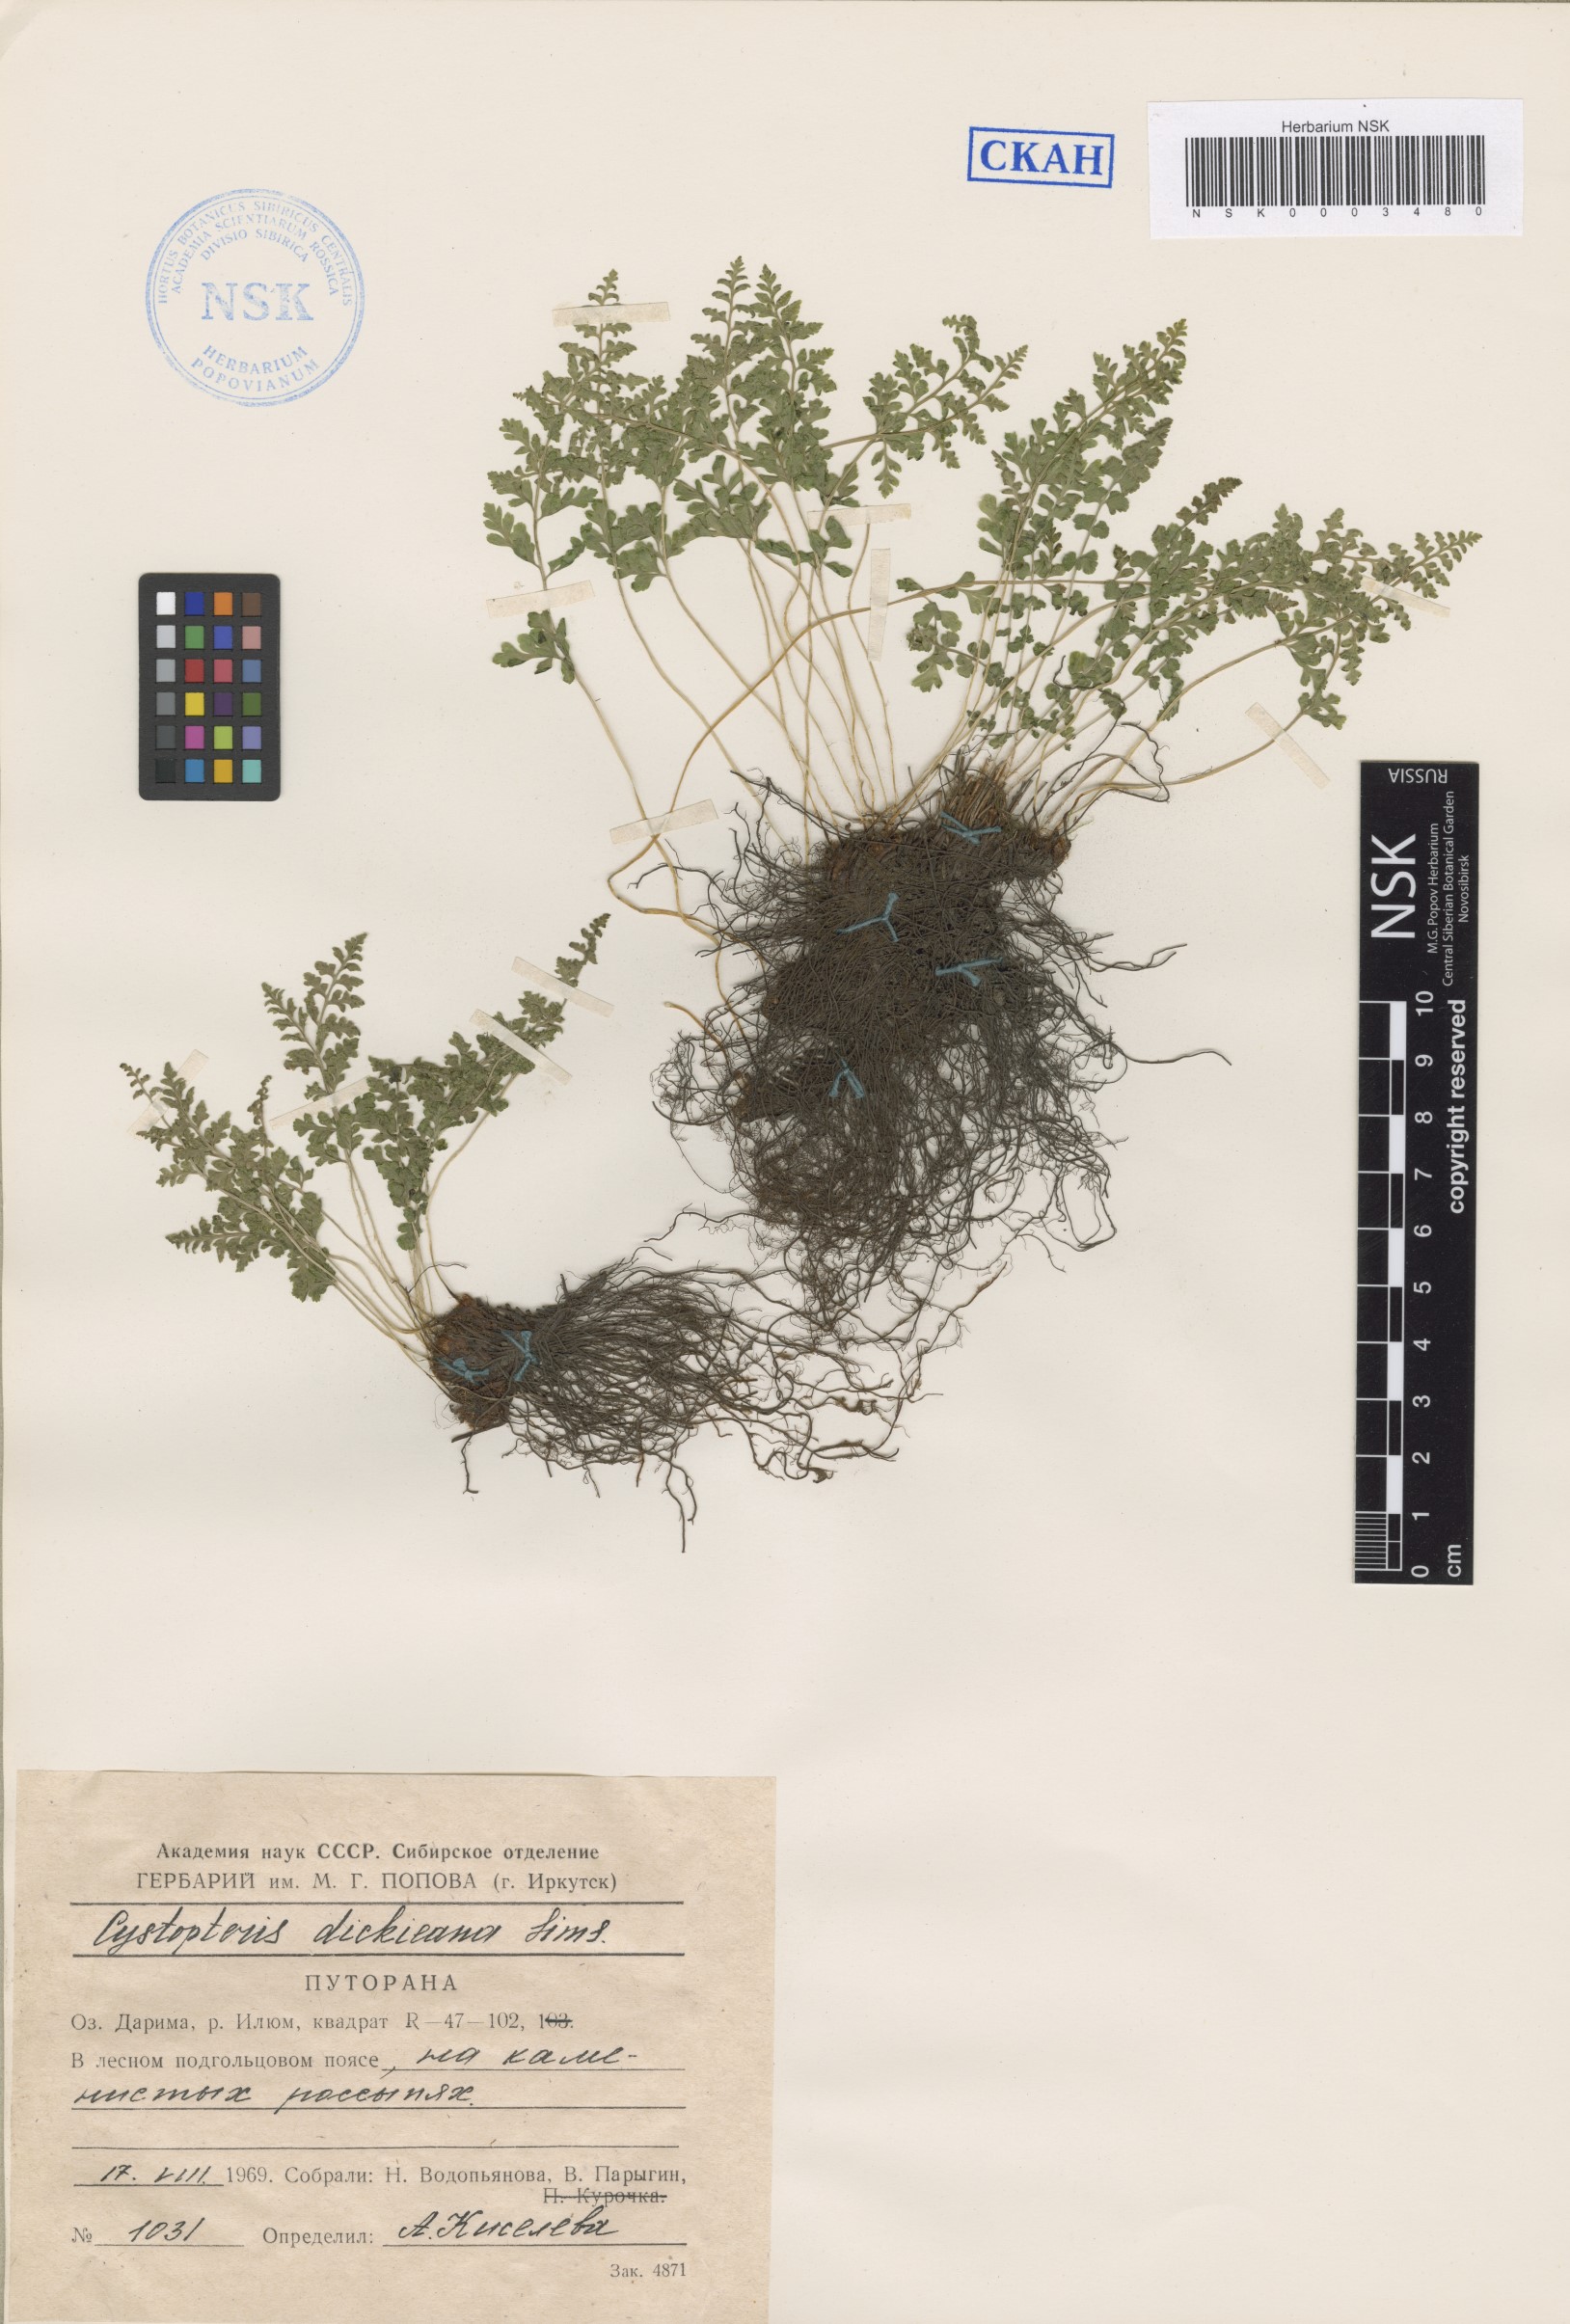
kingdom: Plantae
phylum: Tracheophyta
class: Polypodiopsida
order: Polypodiales
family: Cystopteridaceae
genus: Cystopteris
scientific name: Cystopteris dickieana
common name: Dickie's bladder-fern
